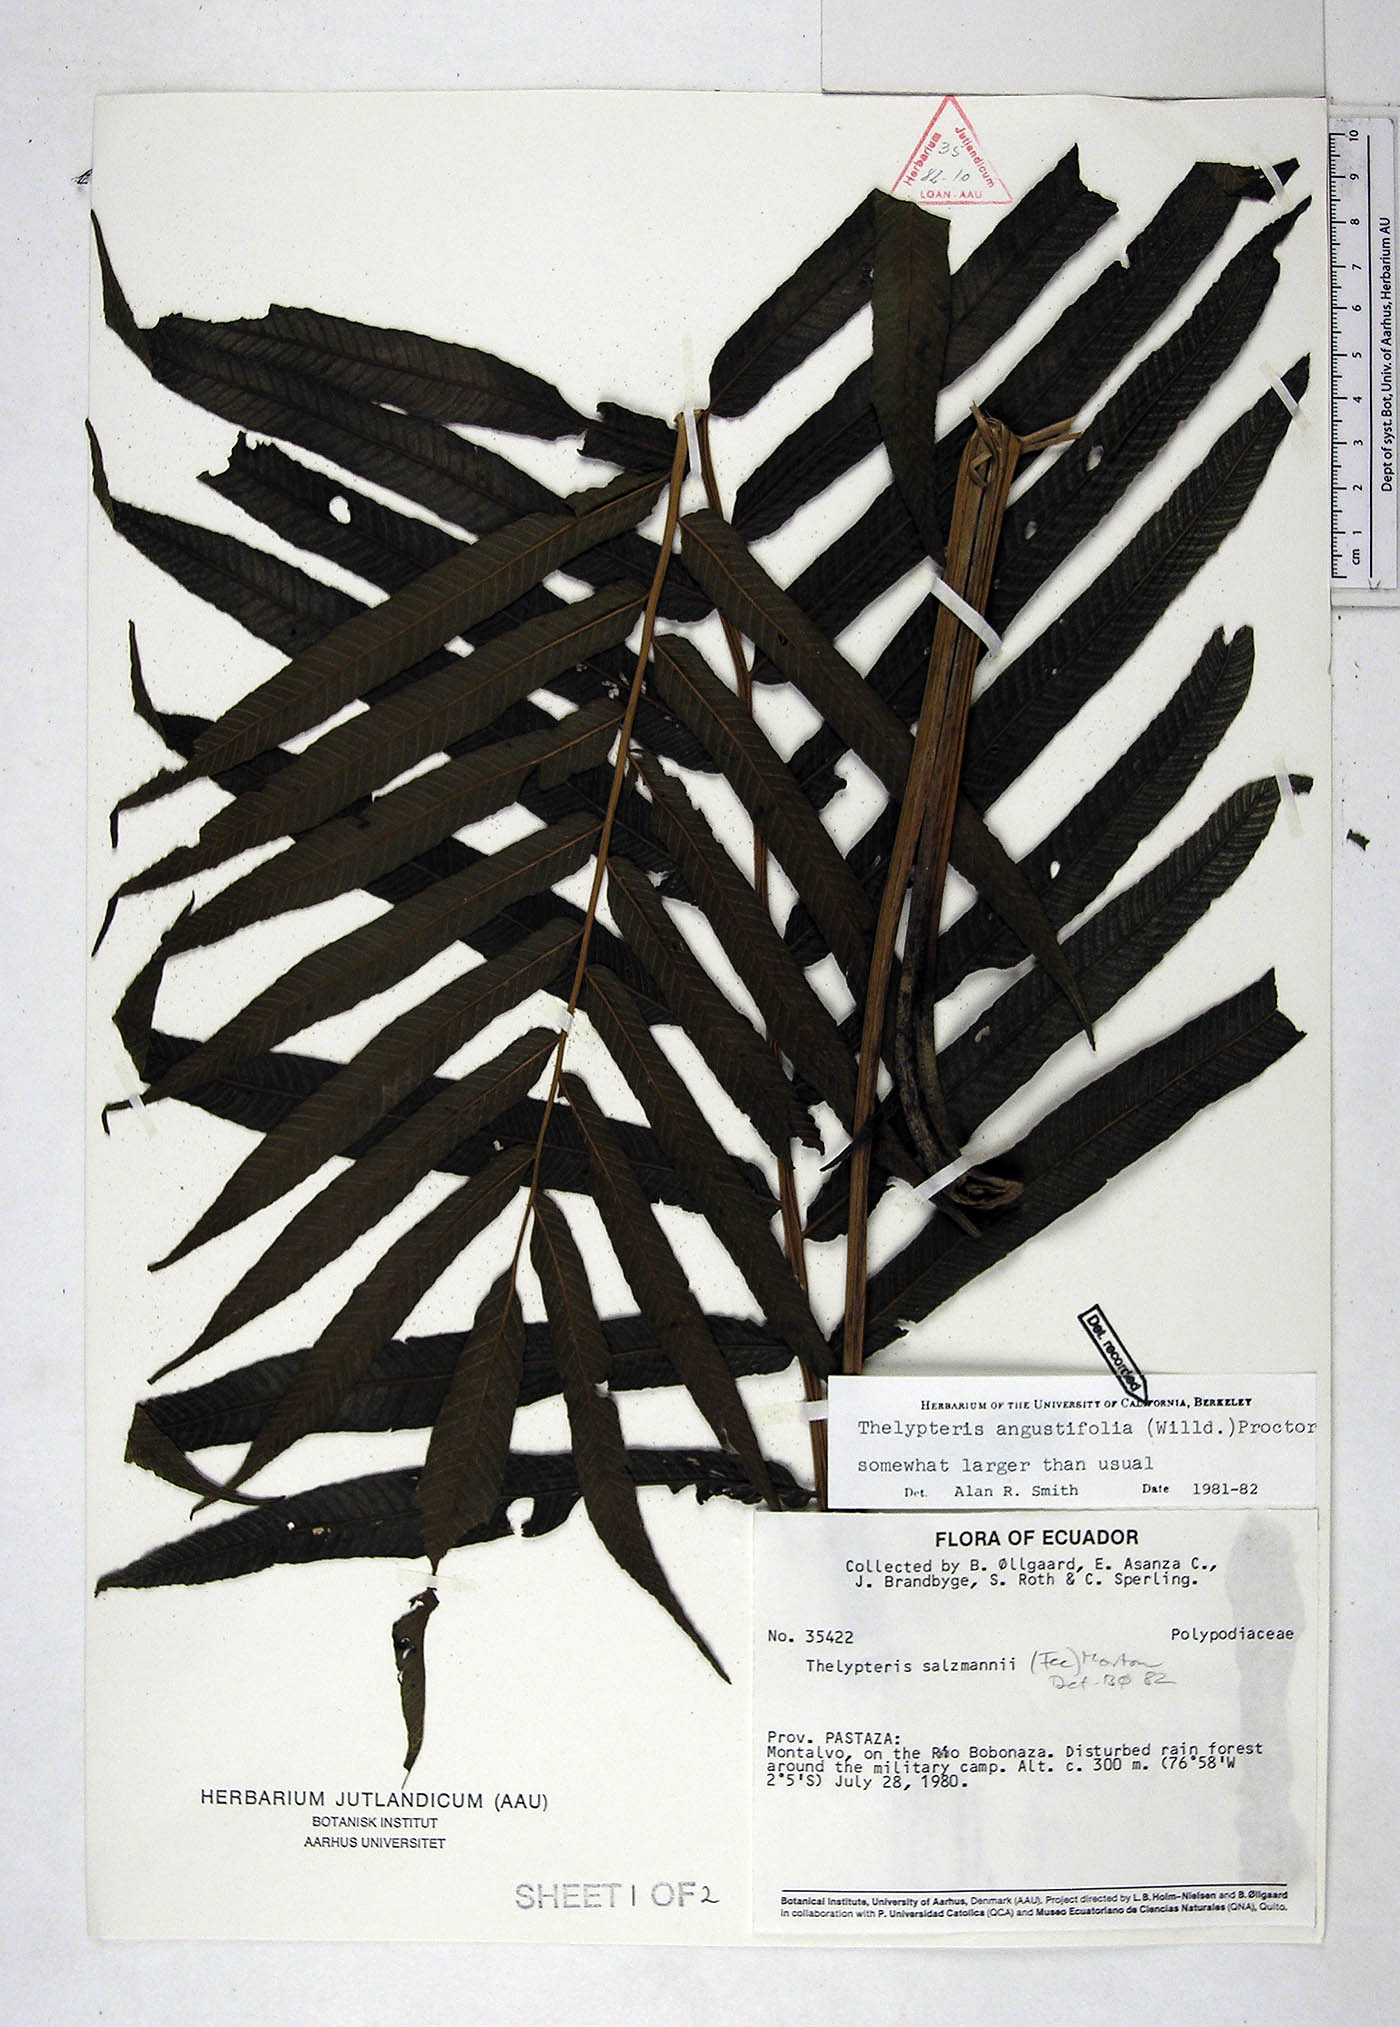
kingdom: Plantae
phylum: Tracheophyta
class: Polypodiopsida
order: Polypodiales
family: Thelypteridaceae
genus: Meniscium
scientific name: Meniscium angustifolium
